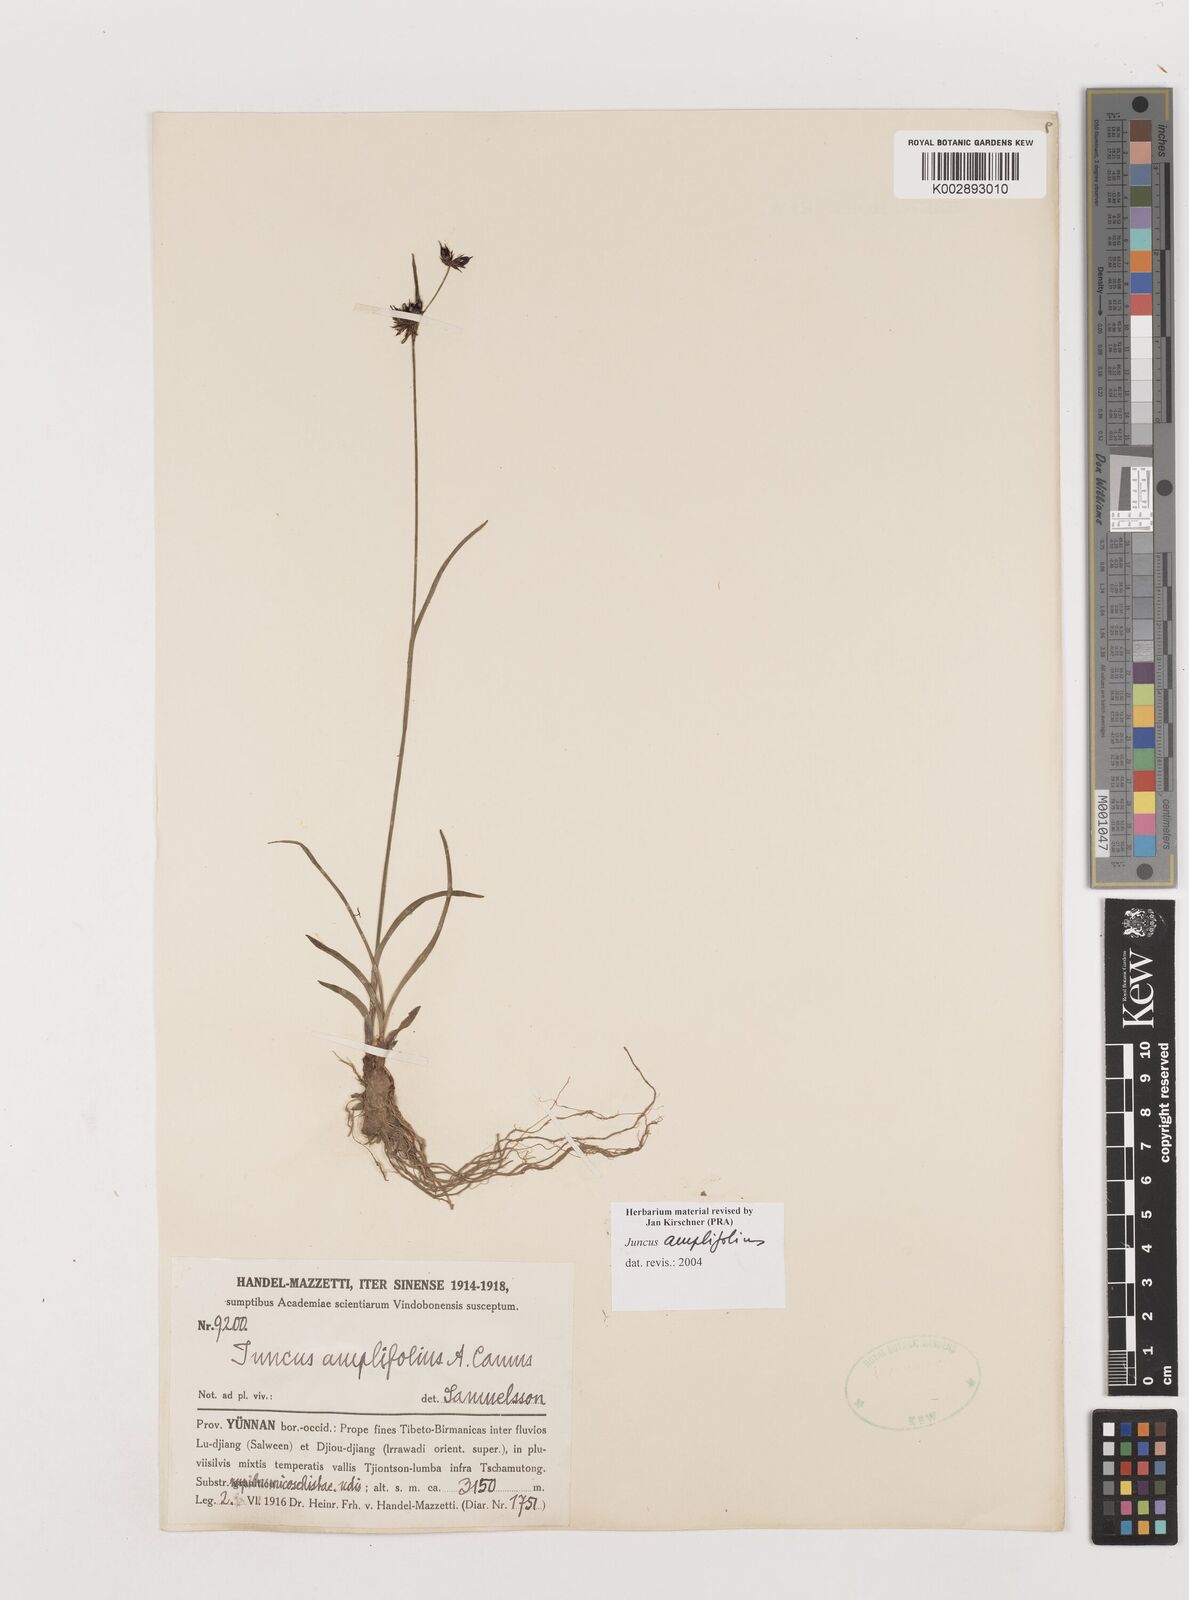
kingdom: Plantae
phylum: Tracheophyta
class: Liliopsida
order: Poales
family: Juncaceae
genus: Juncus
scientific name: Juncus amplifolius
